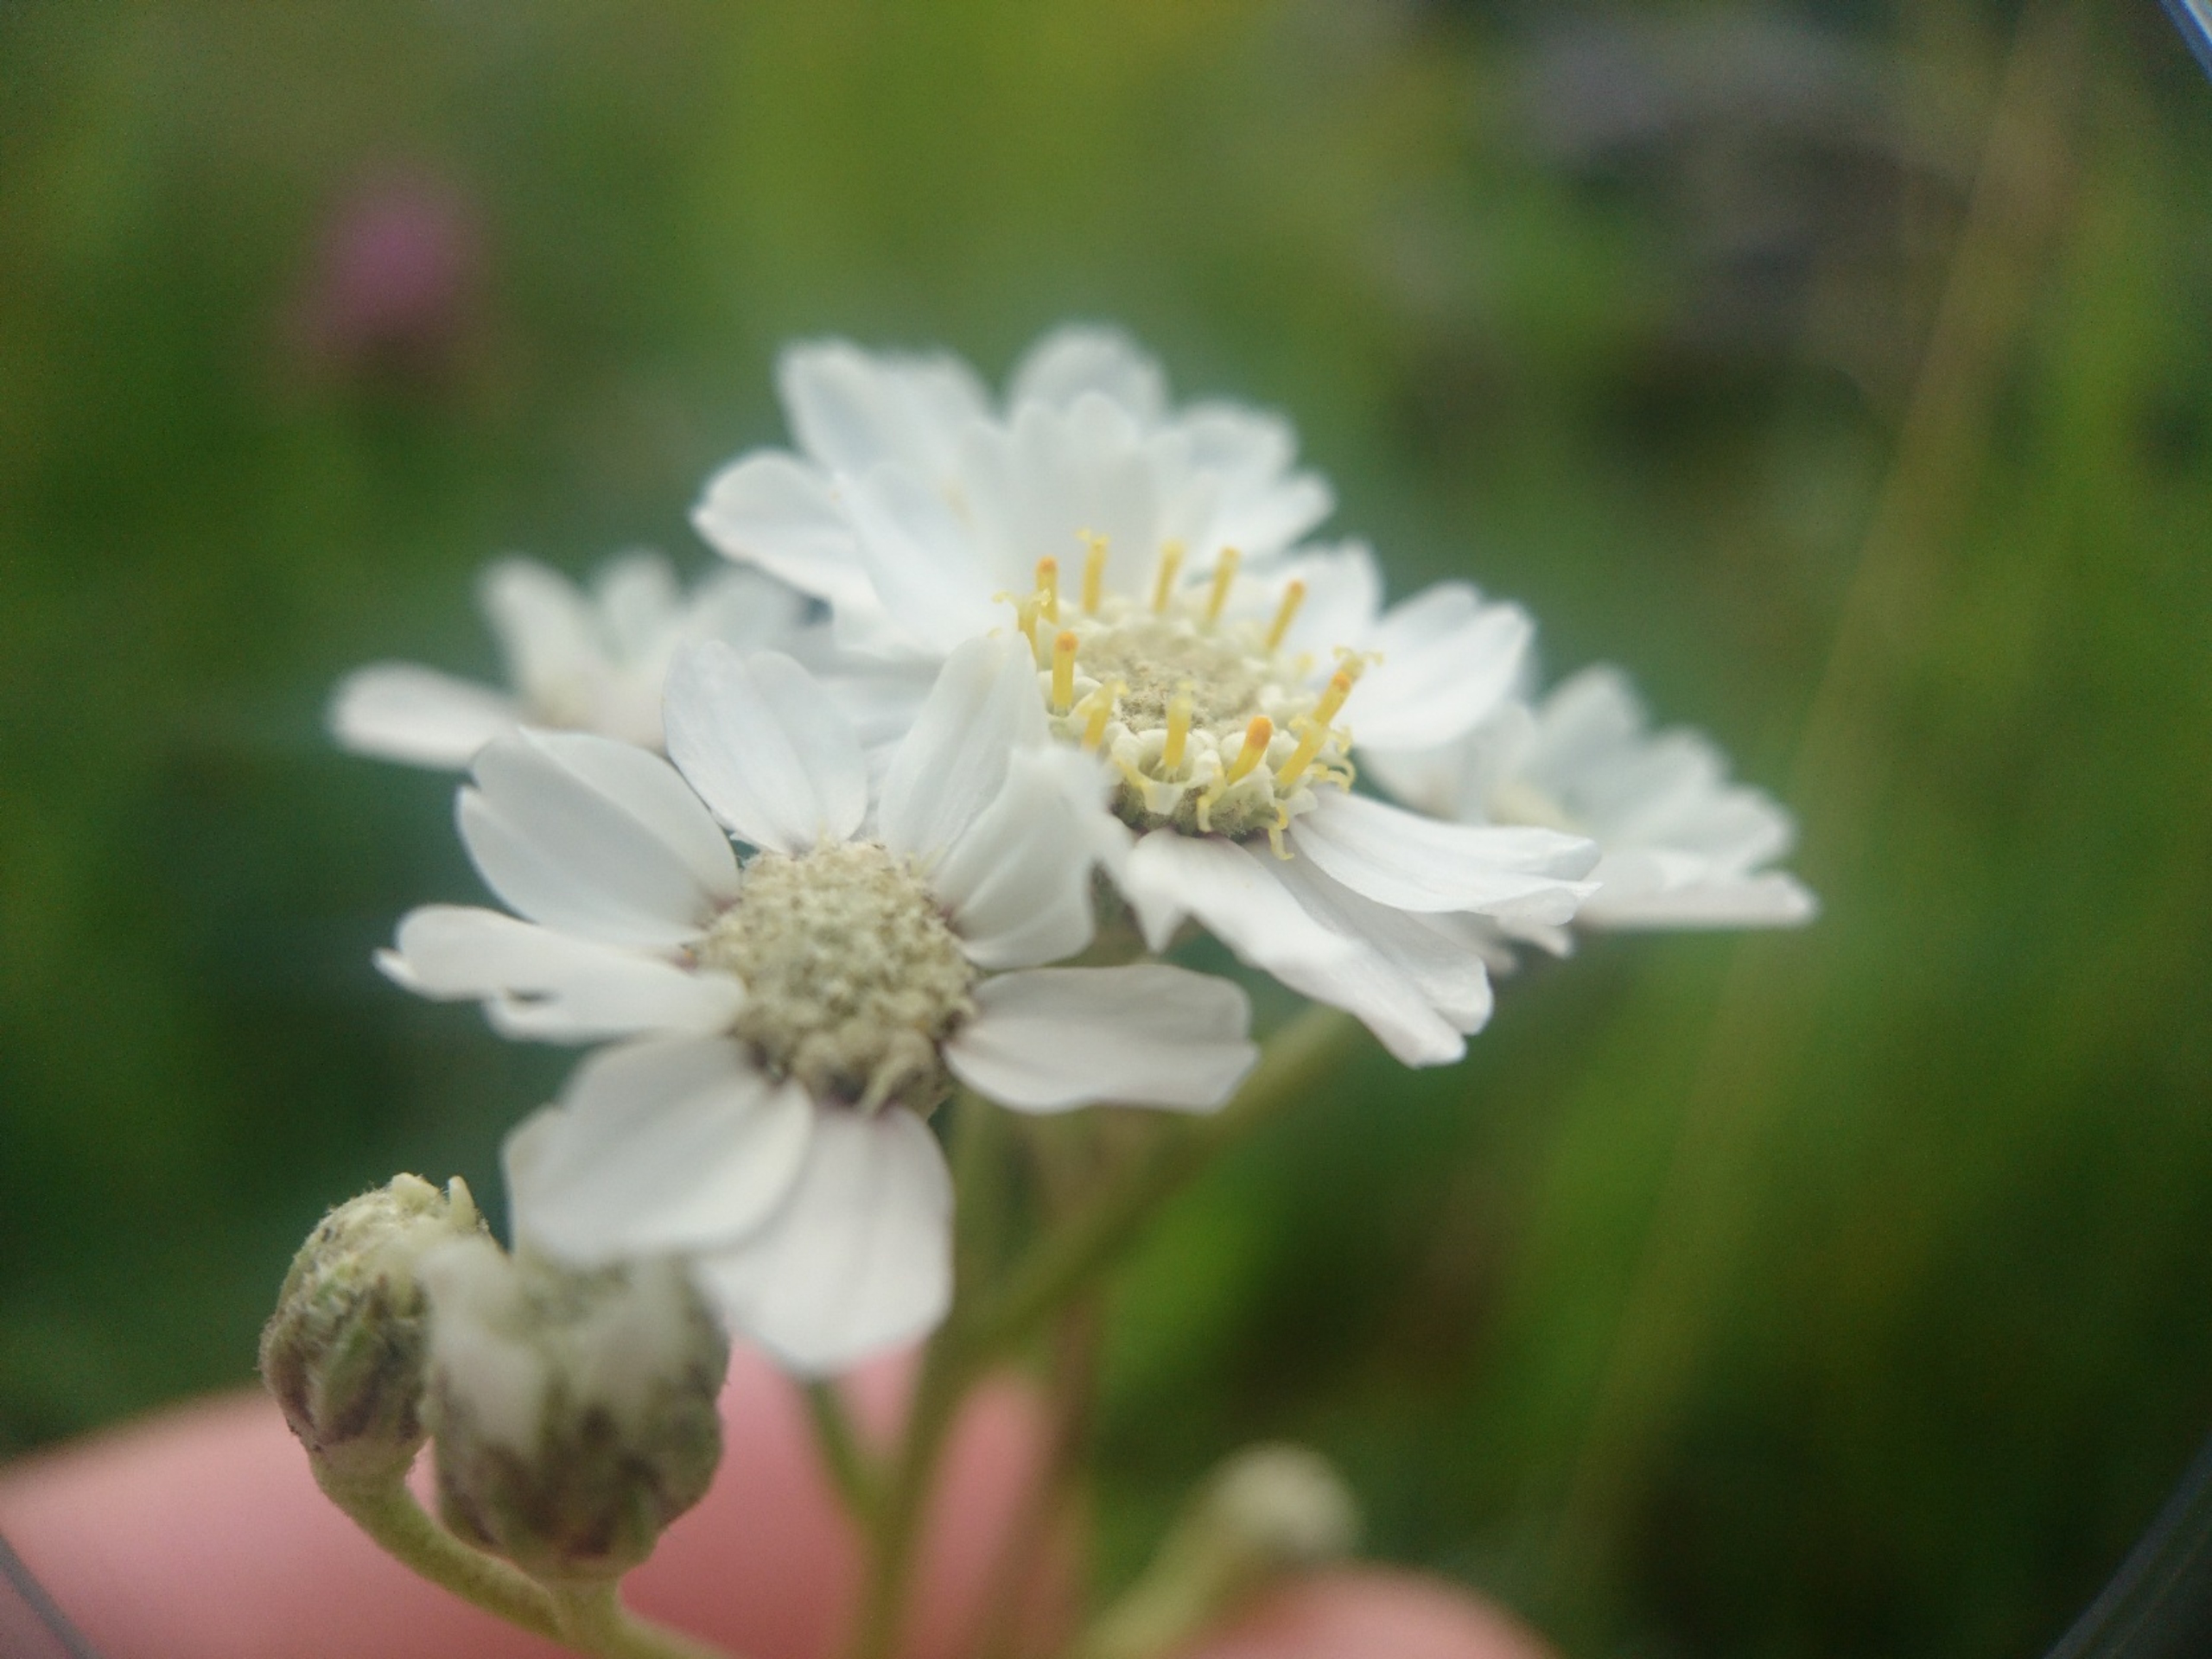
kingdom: Plantae
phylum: Tracheophyta
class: Magnoliopsida
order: Asterales
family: Asteraceae
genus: Achillea
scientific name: Achillea ptarmica
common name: Nyse-røllike
